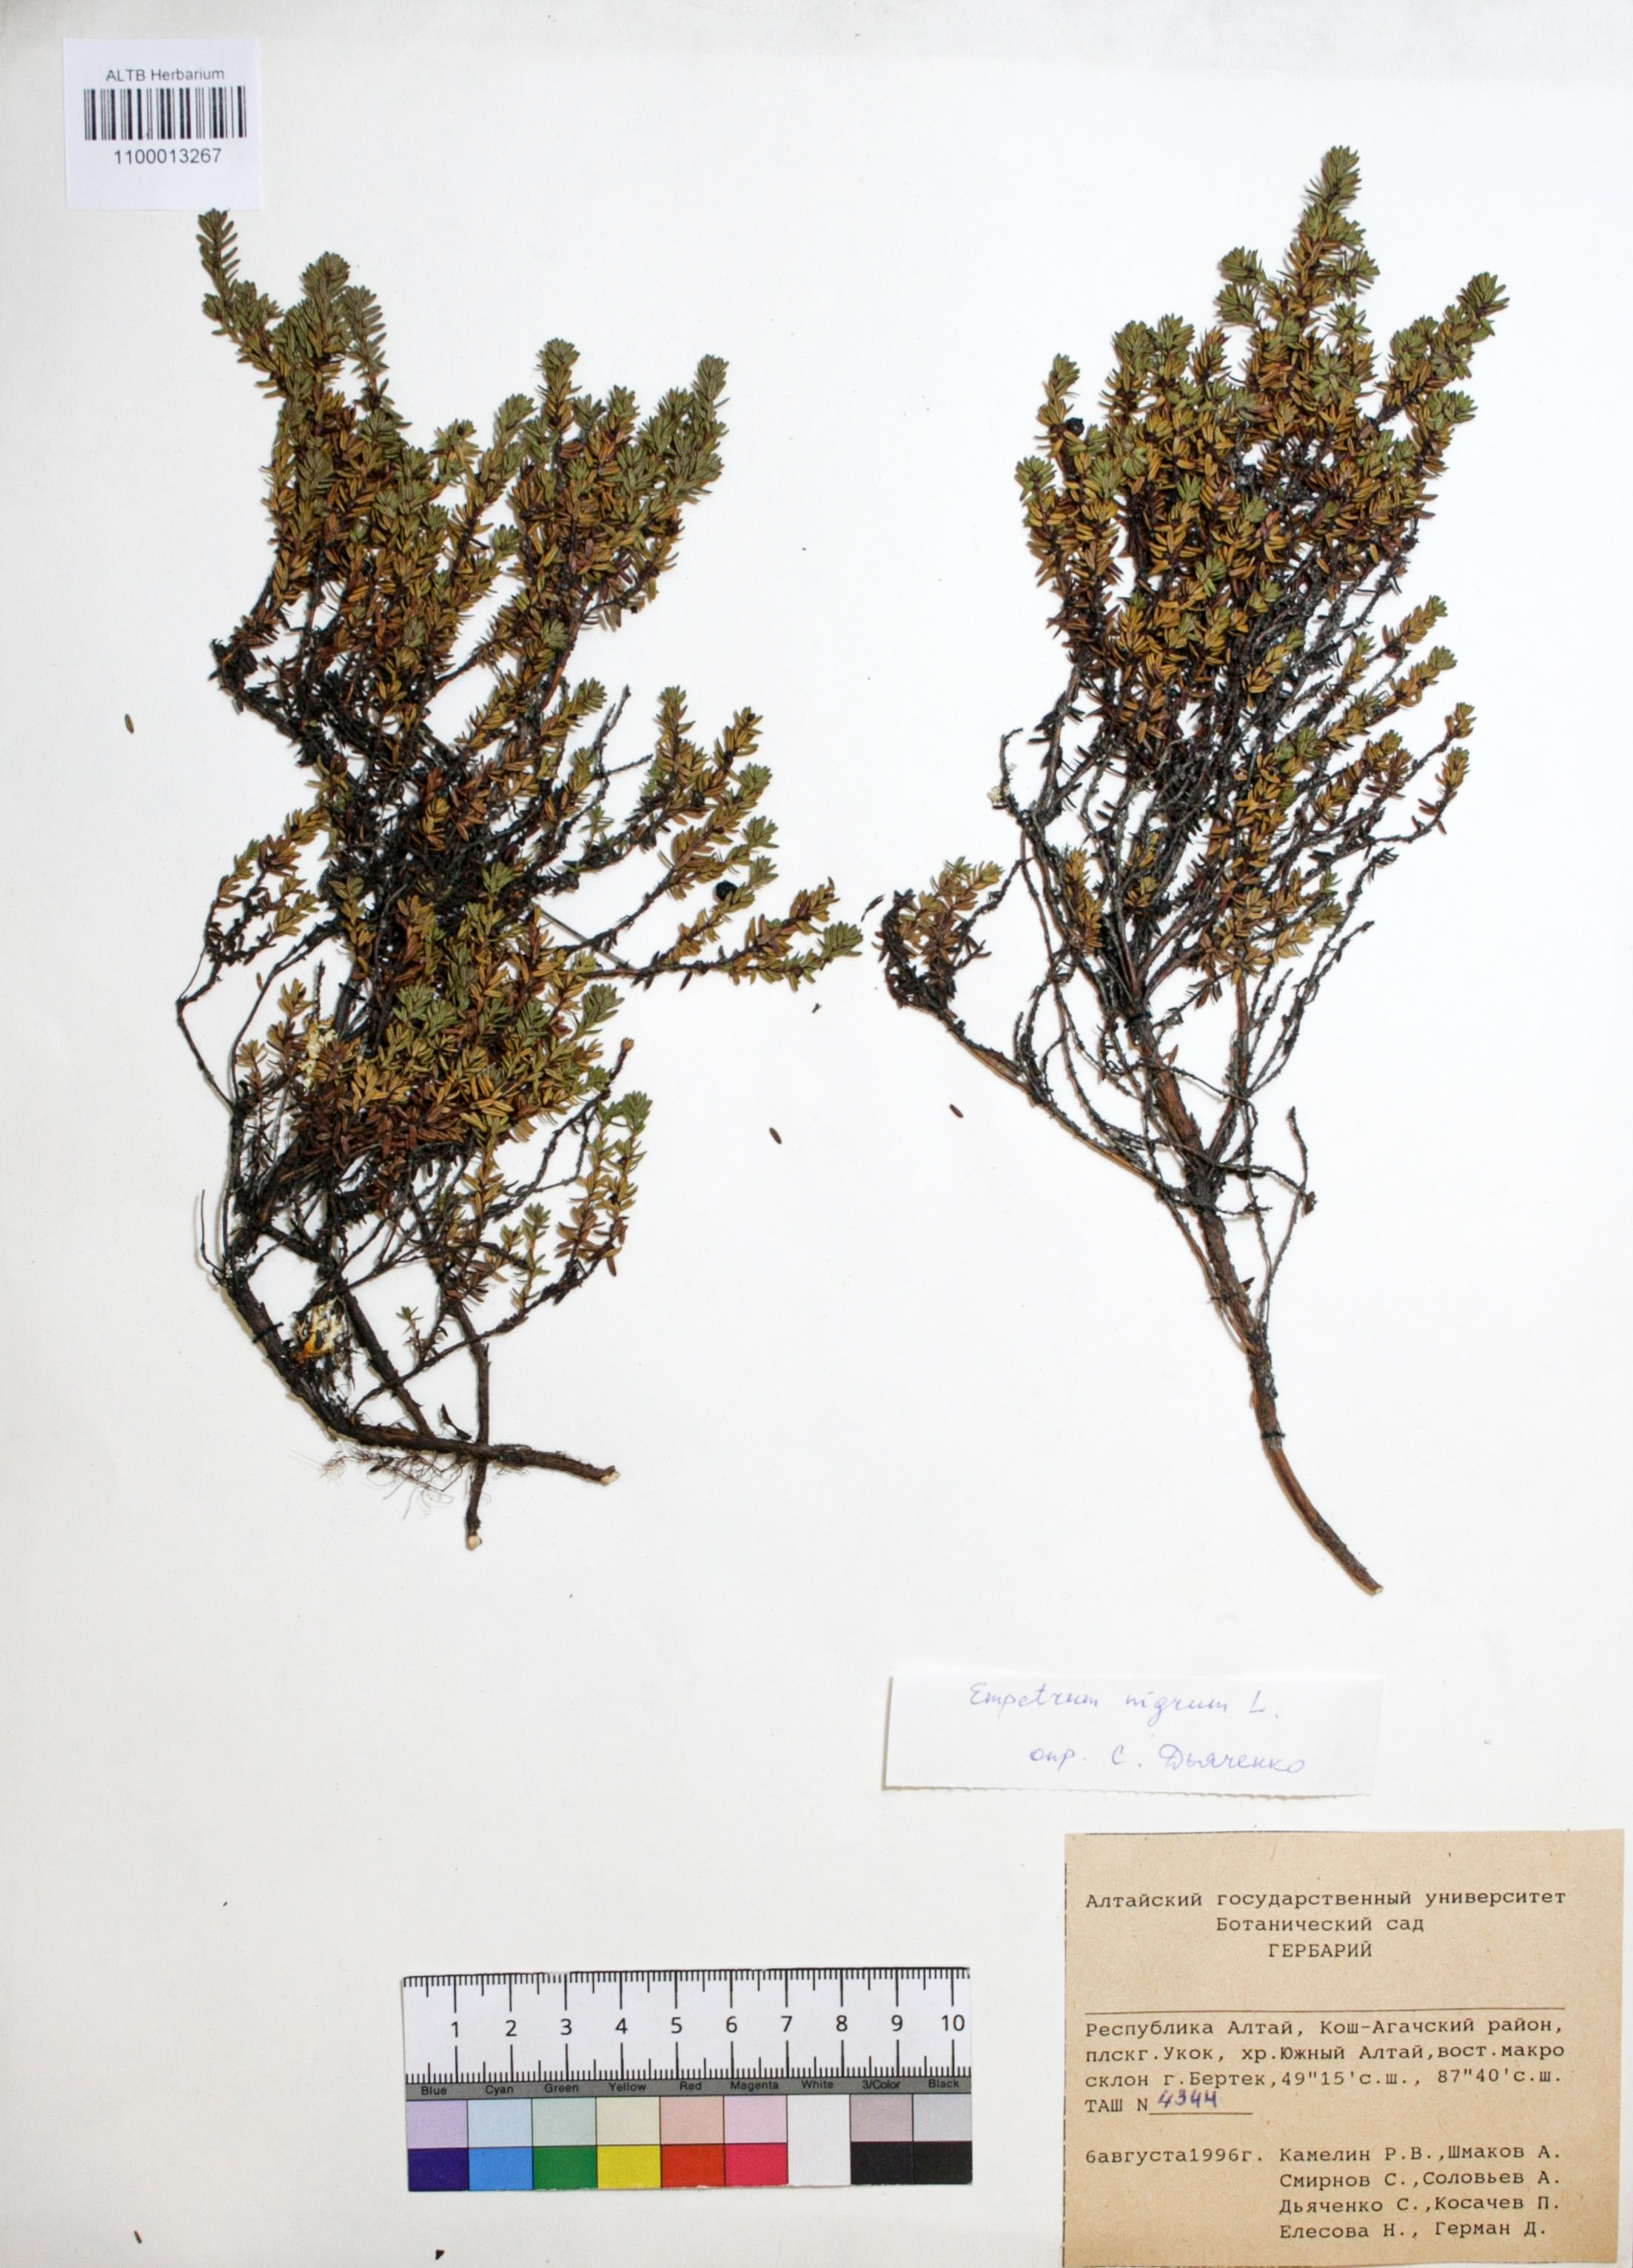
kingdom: Plantae
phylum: Tracheophyta
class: Magnoliopsida
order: Ericales
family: Ericaceae
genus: Empetrum
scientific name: Empetrum nigrum
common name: Black crowberry
